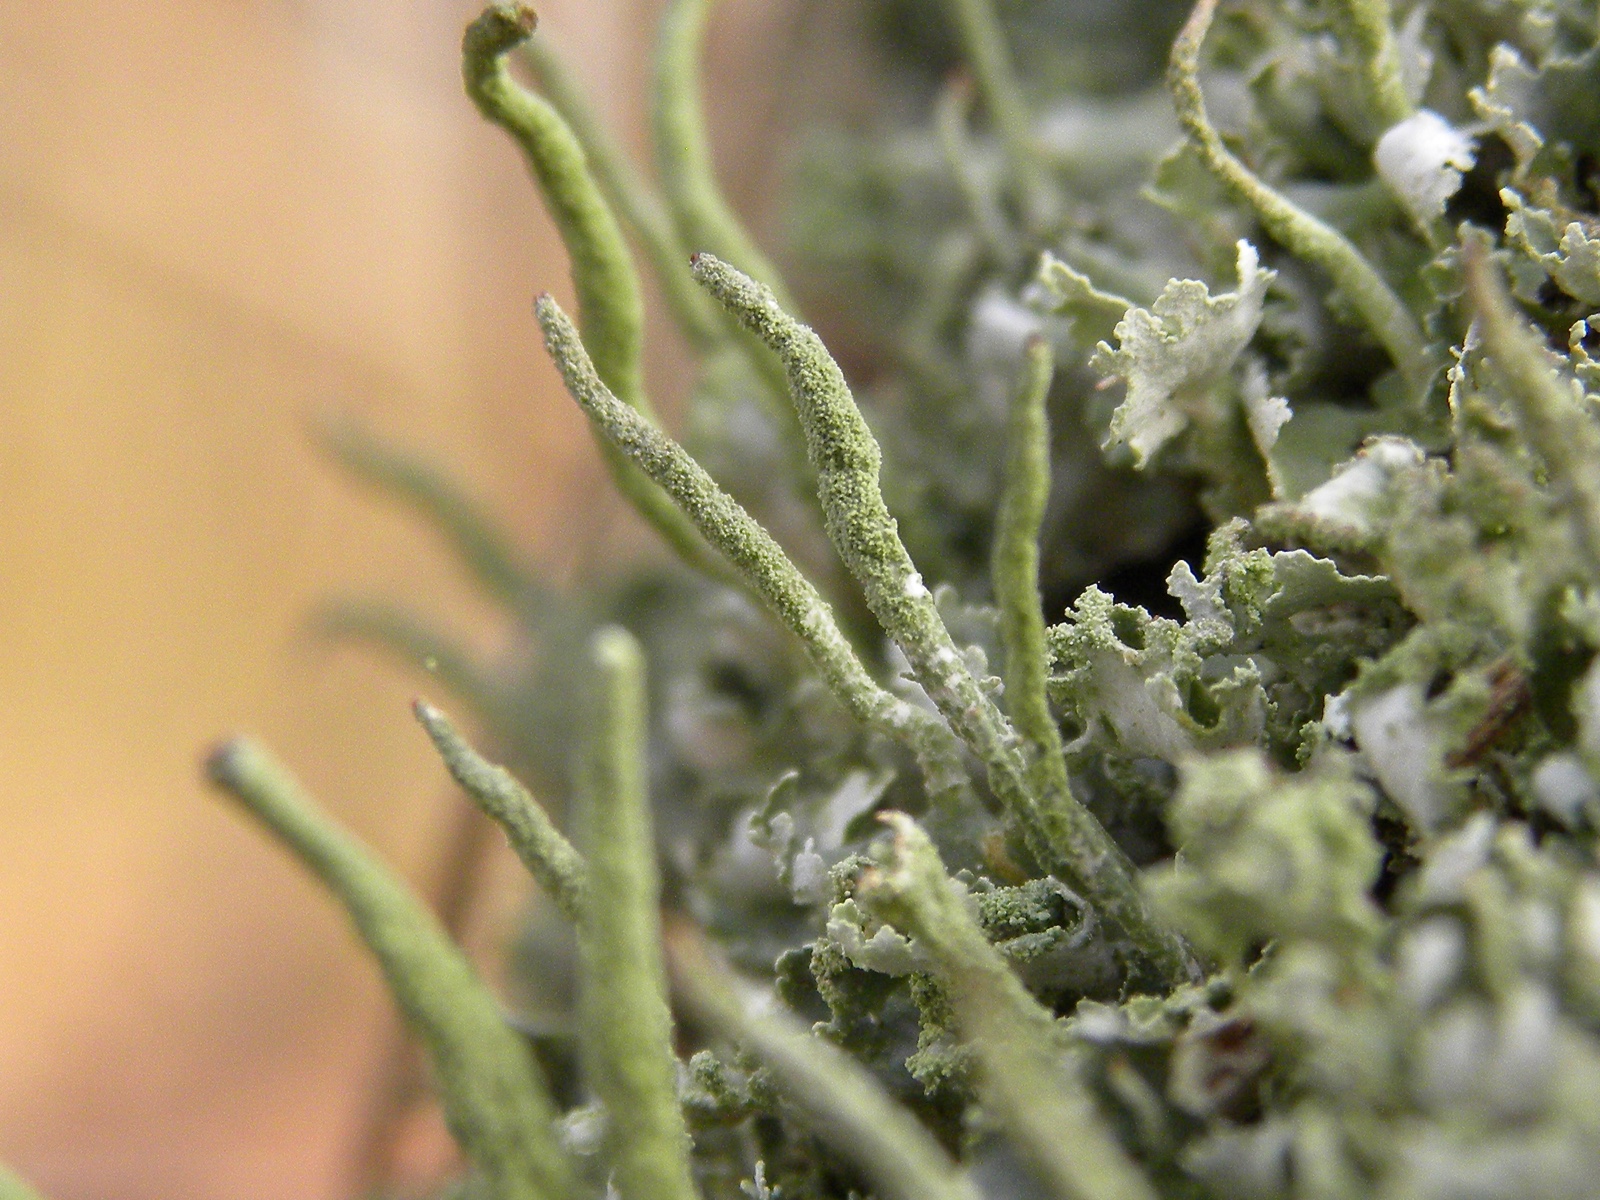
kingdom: Fungi
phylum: Ascomycota
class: Lecanoromycetes
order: Lecanorales
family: Cladoniaceae
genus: Cladonia
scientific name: Cladonia ochrochlora
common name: stød-bægerlav
